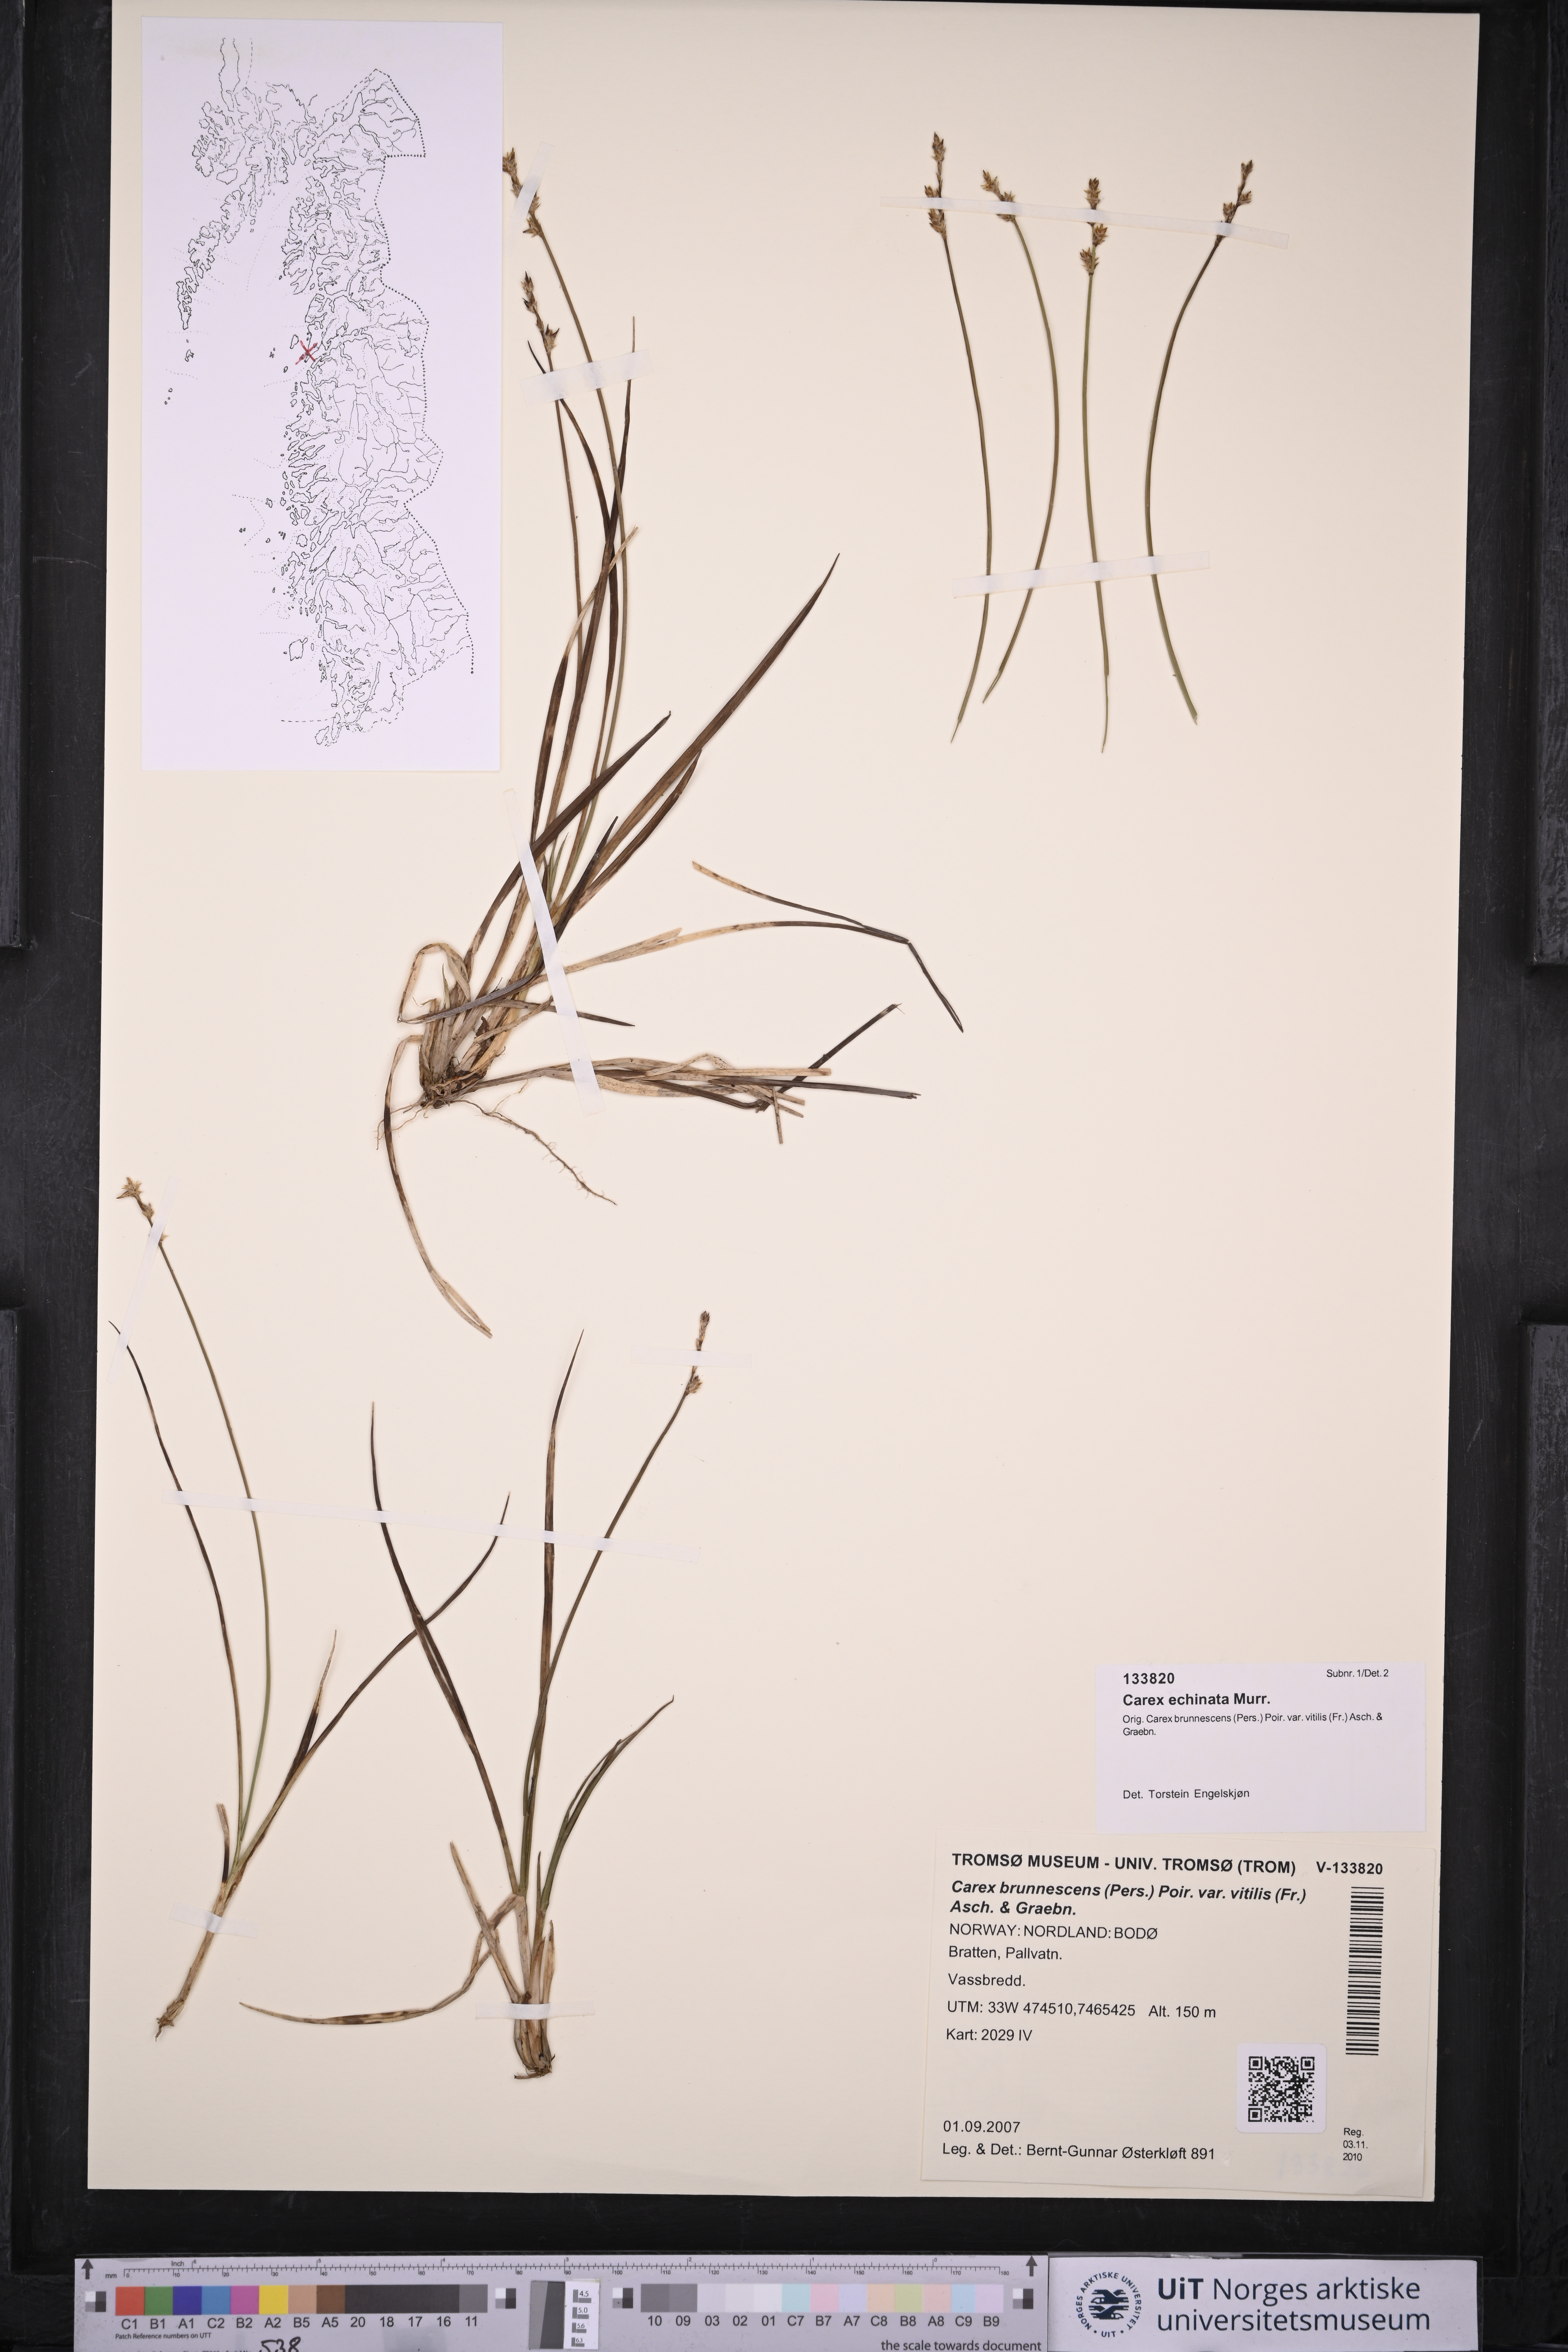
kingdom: Plantae
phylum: Tracheophyta
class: Liliopsida
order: Poales
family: Cyperaceae
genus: Carex
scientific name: Carex echinata
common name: Star sedge
